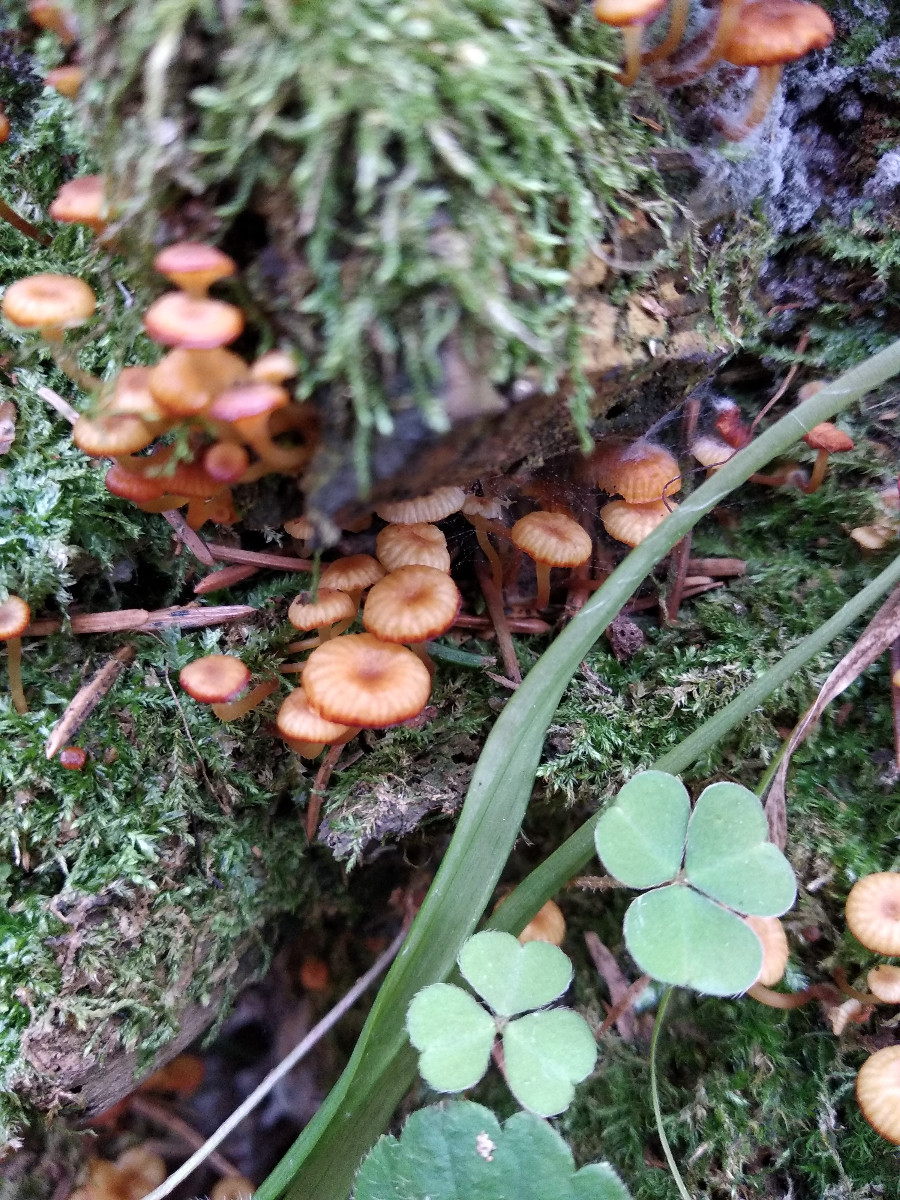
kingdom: Fungi
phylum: Basidiomycota
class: Agaricomycetes
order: Agaricales
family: Mycenaceae
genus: Xeromphalina
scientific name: Xeromphalina campanella
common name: klokke-tørhat
